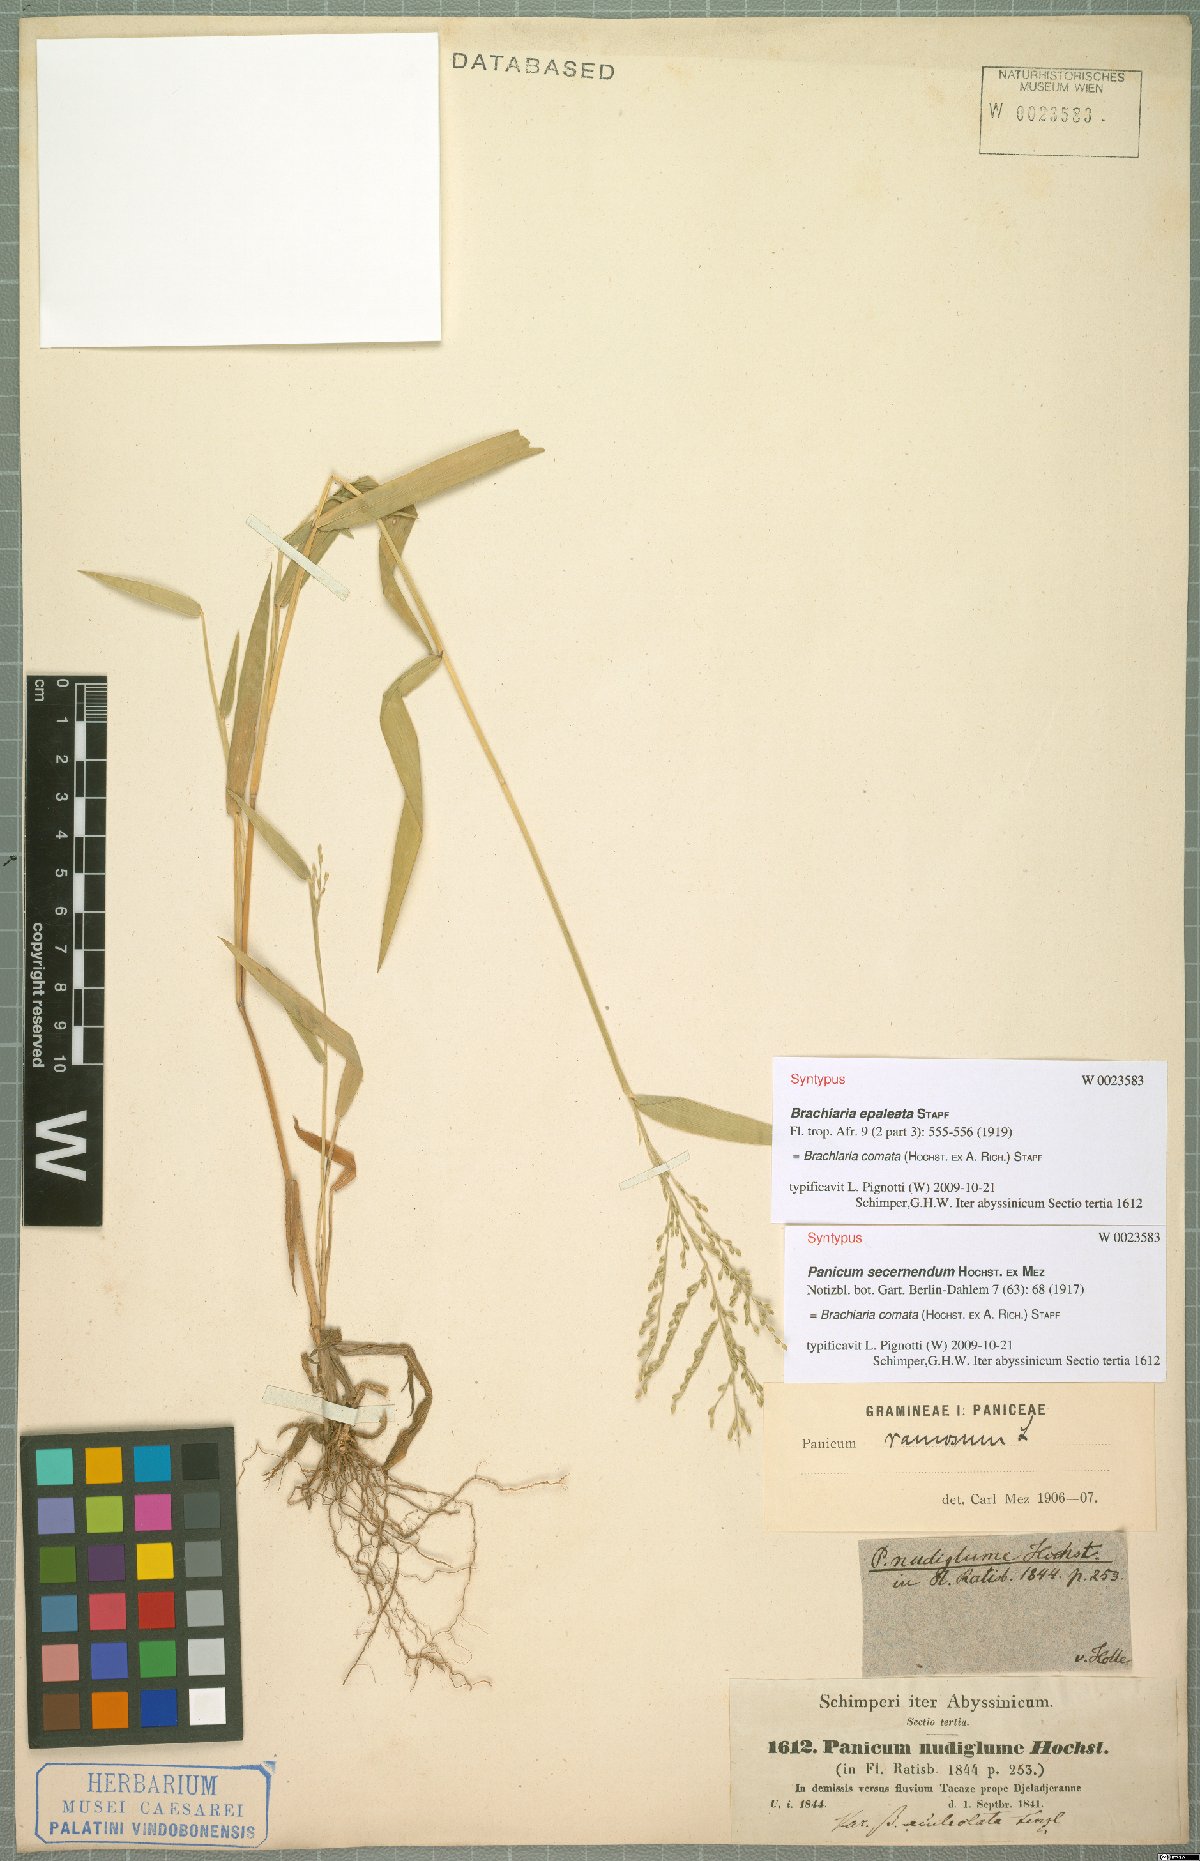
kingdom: Plantae
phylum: Tracheophyta
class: Liliopsida
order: Poales
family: Poaceae
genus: Urochloa
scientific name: Urochloa comata
